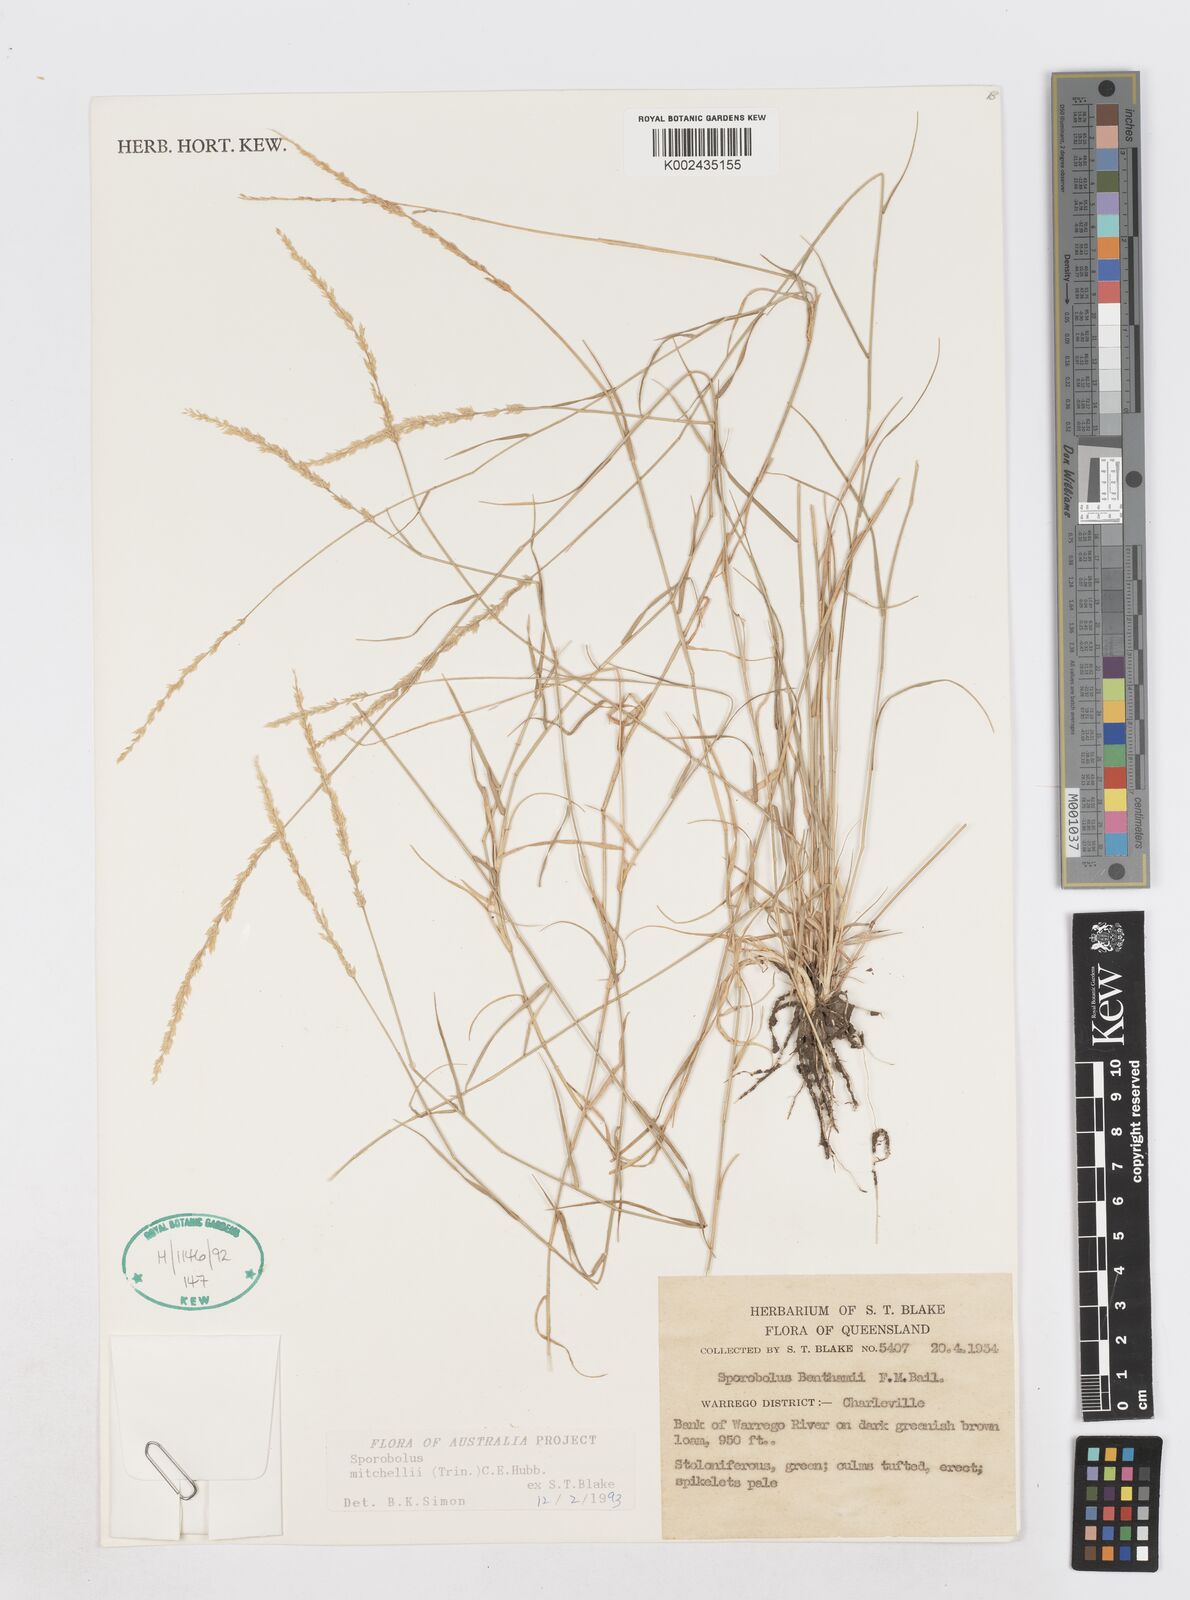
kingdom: Plantae
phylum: Tracheophyta
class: Liliopsida
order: Poales
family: Poaceae
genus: Sporobolus
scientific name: Sporobolus mitchellii
